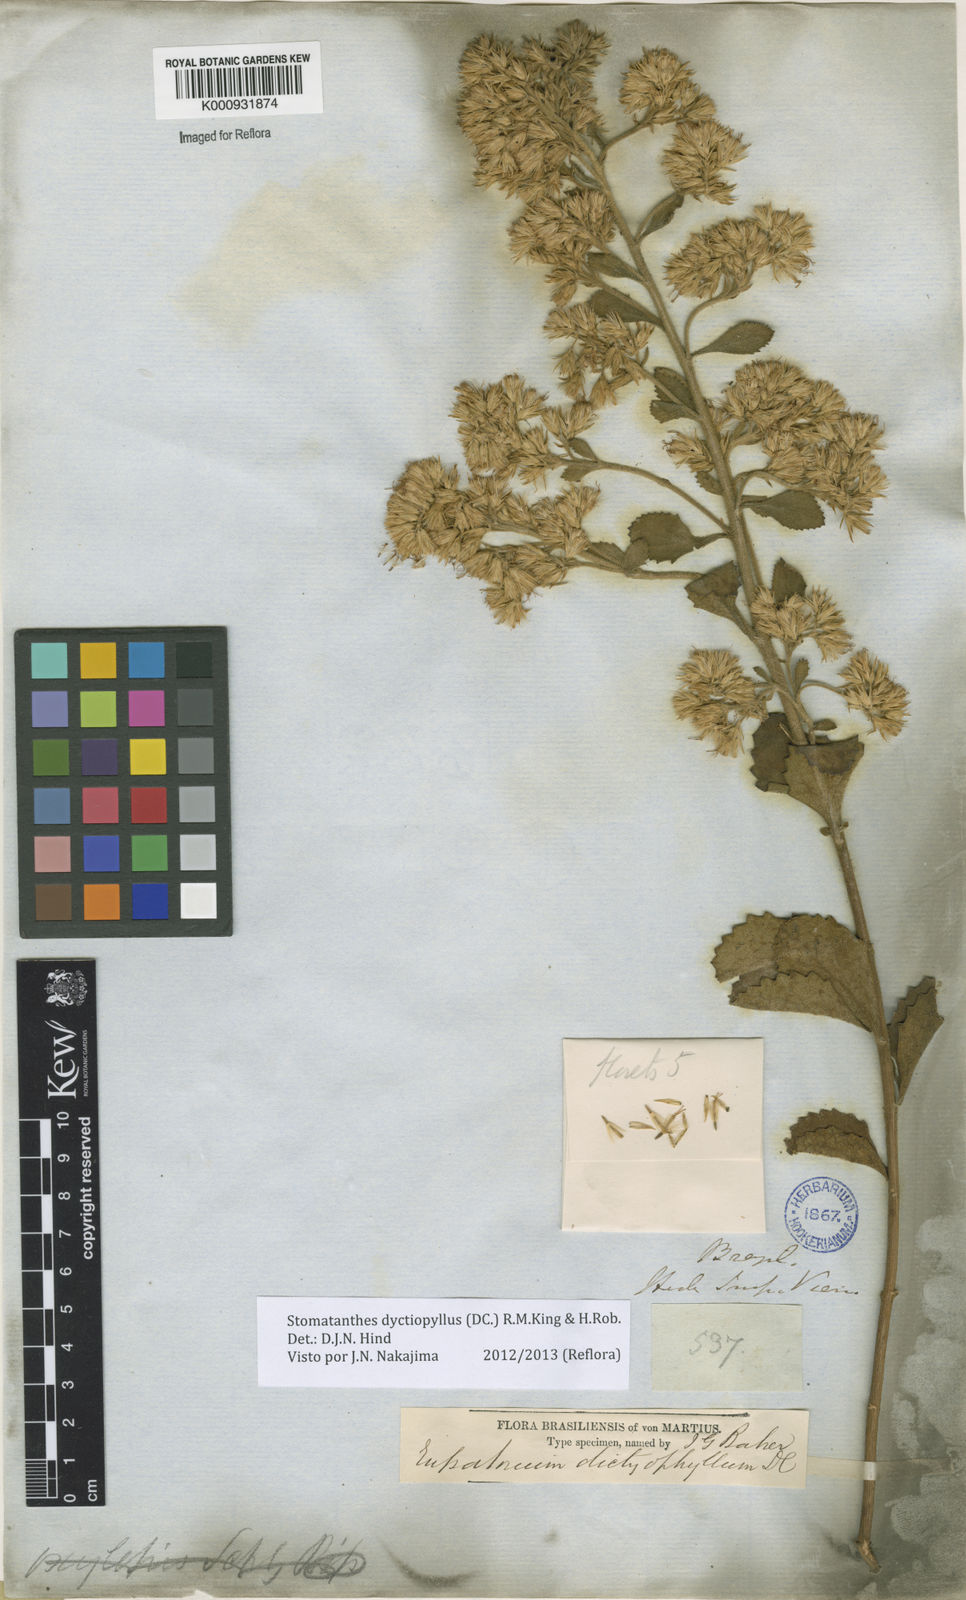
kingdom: Plantae
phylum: Tracheophyta
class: Magnoliopsida
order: Asterales
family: Asteraceae
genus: Stomatanthes
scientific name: Stomatanthes dictyophyllus
